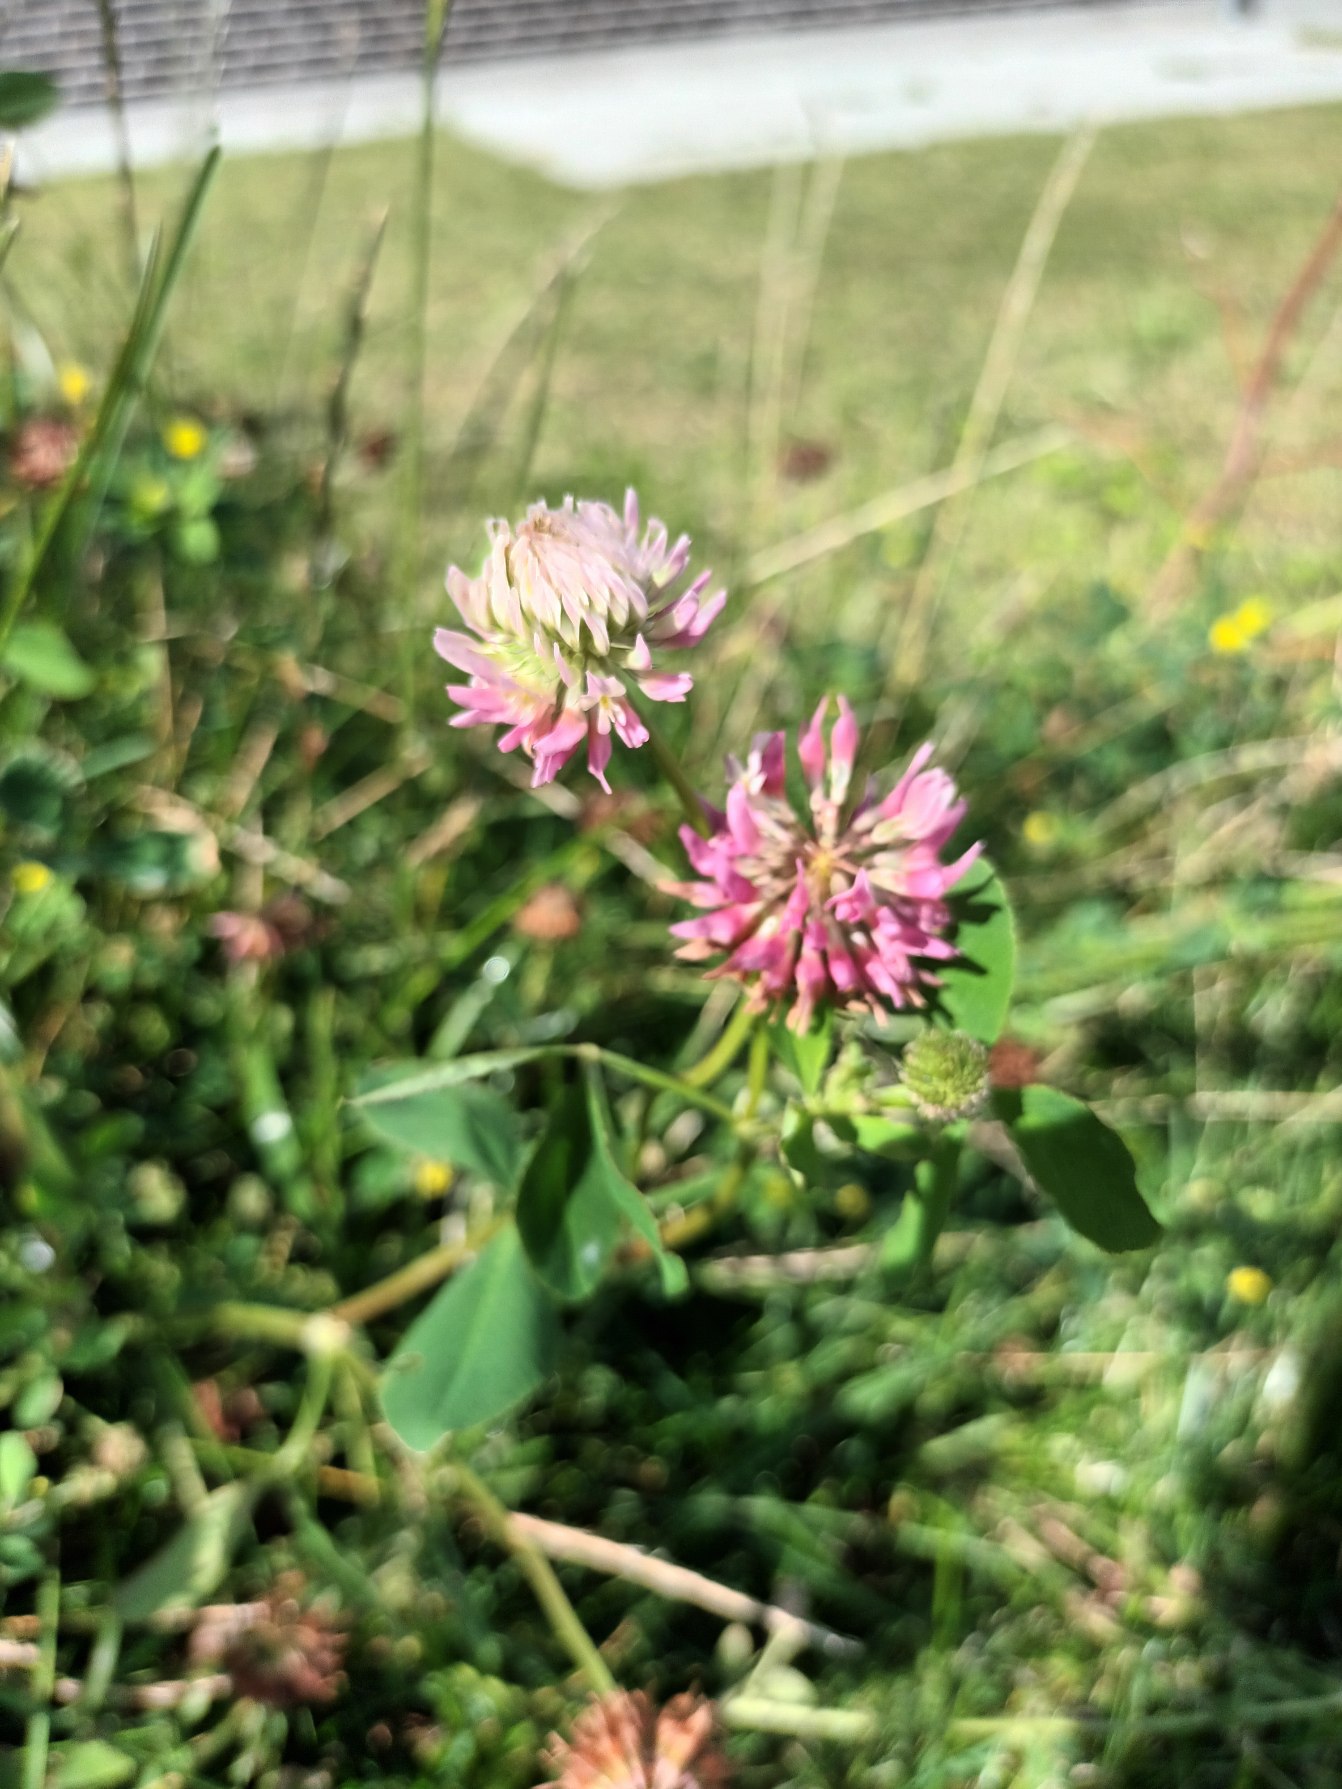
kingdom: Plantae
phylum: Tracheophyta
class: Magnoliopsida
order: Fabales
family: Fabaceae
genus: Trifolium
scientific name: Trifolium hybridum
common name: Alsike-kløver
